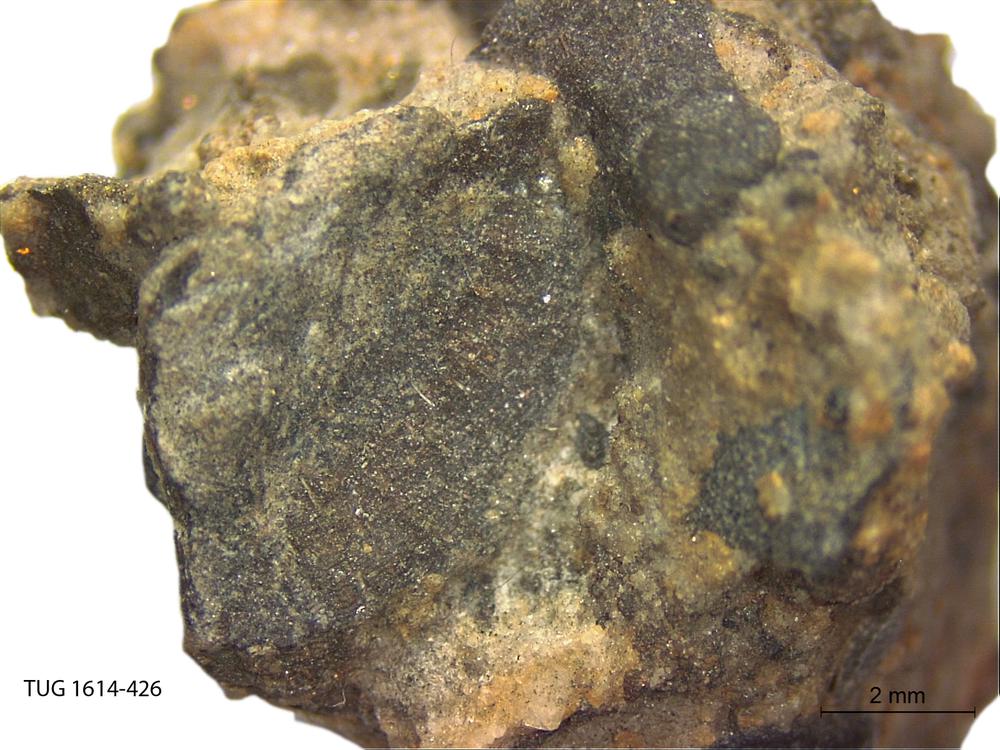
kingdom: Animalia
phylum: Mollusca
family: Scenellidae
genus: Scenella
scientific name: Scenella
